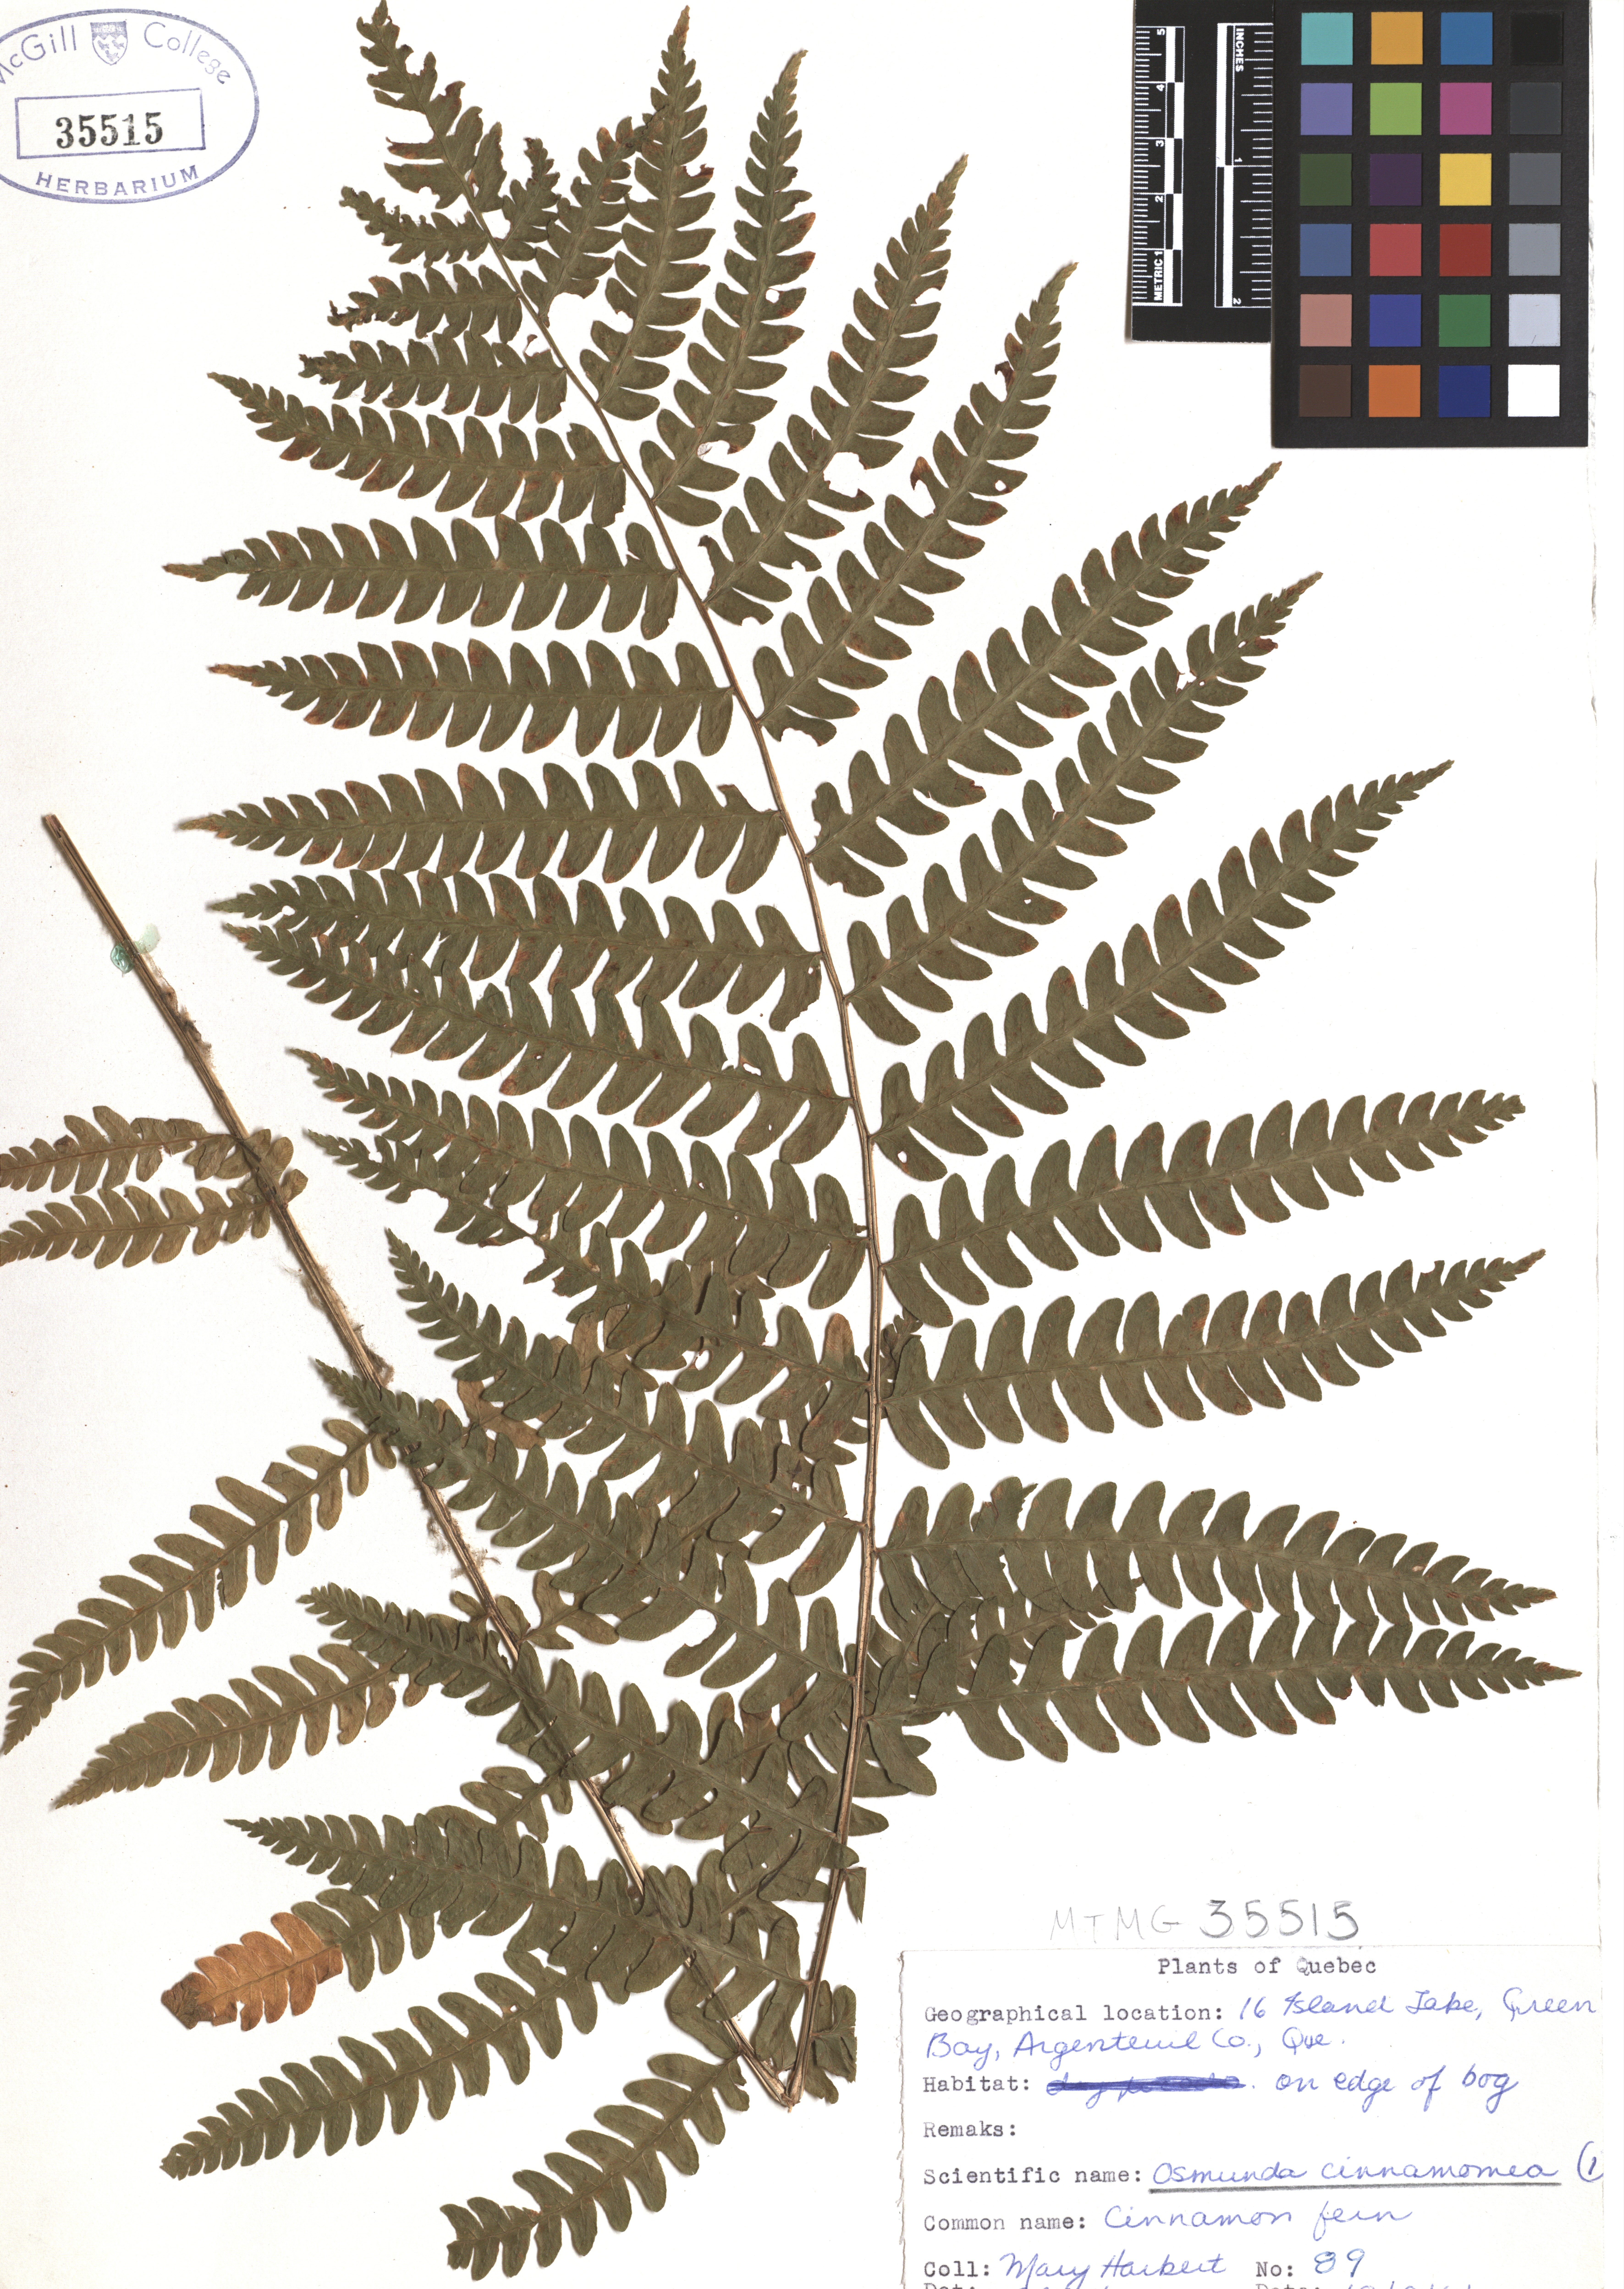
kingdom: Plantae
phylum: Tracheophyta
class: Polypodiopsida
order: Osmundales
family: Osmundaceae
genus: Osmundastrum
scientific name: Osmundastrum cinnamomeum
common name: Cinnamon fern
